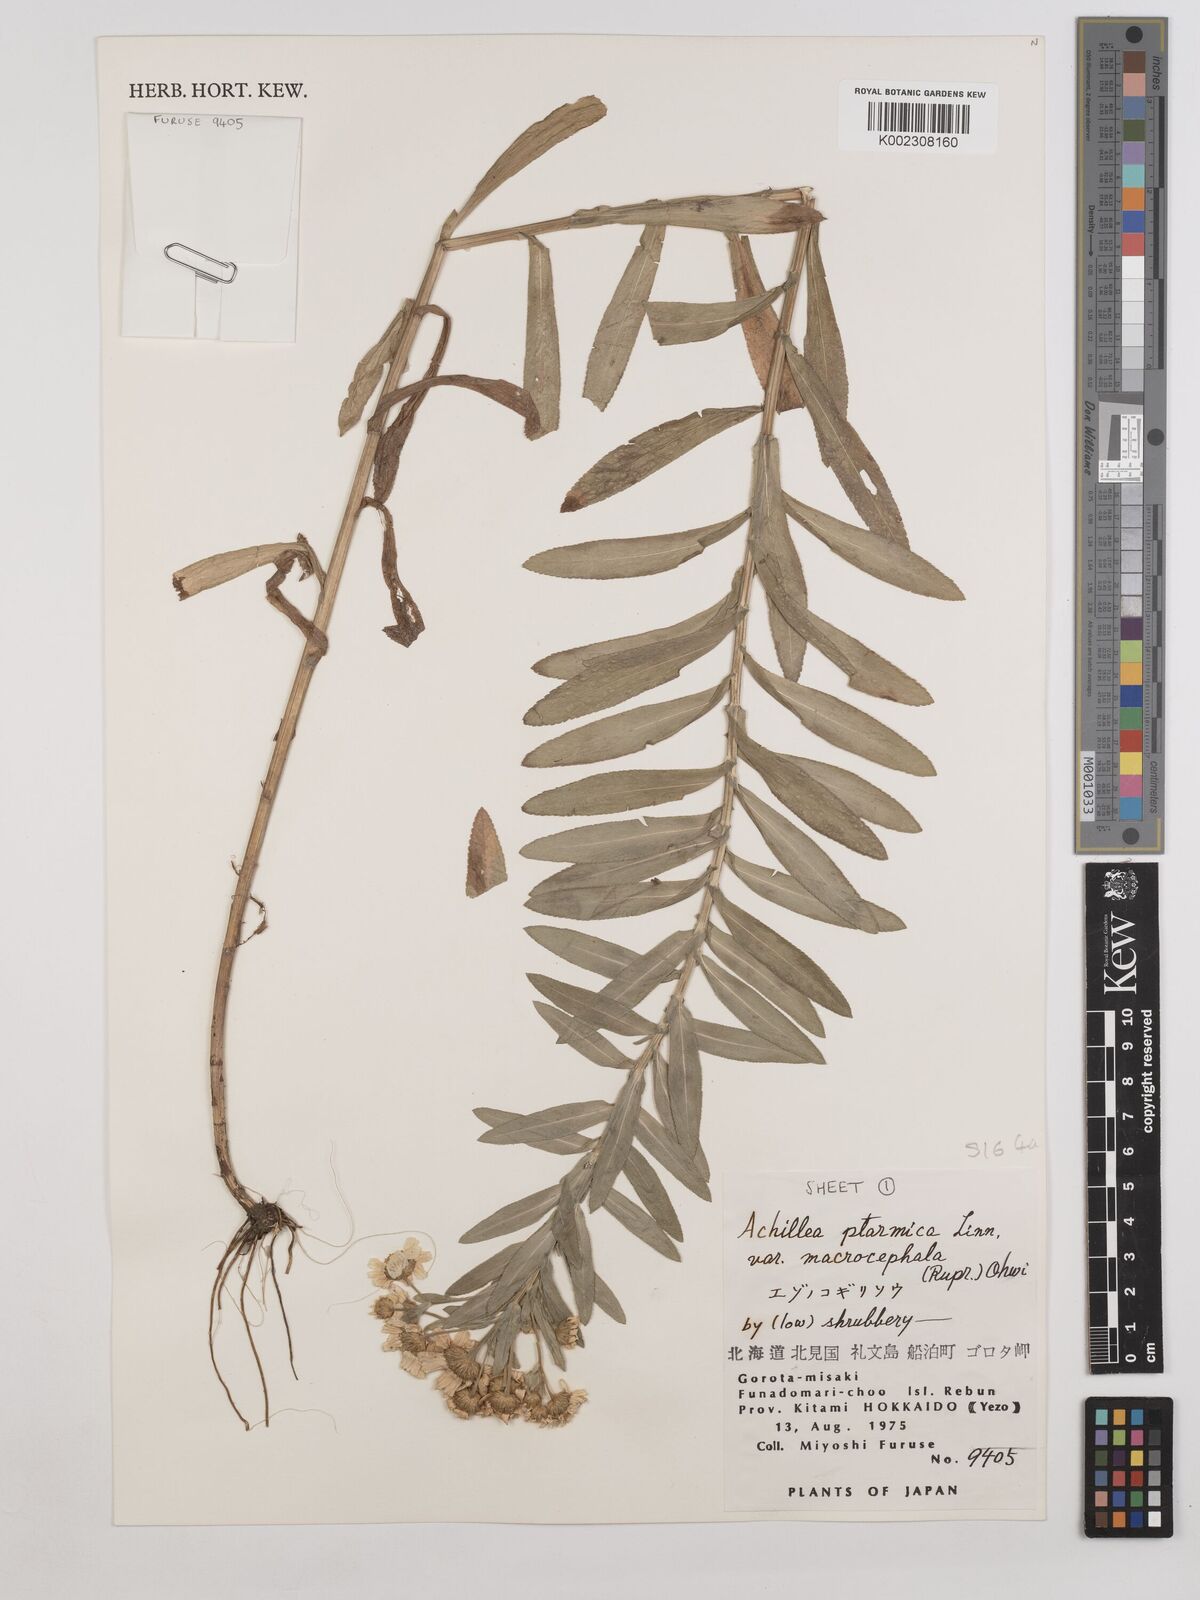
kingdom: Plantae
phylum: Tracheophyta
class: Magnoliopsida
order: Asterales
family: Asteraceae
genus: Achillea
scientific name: Achillea ptarmica
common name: Sneezeweed
